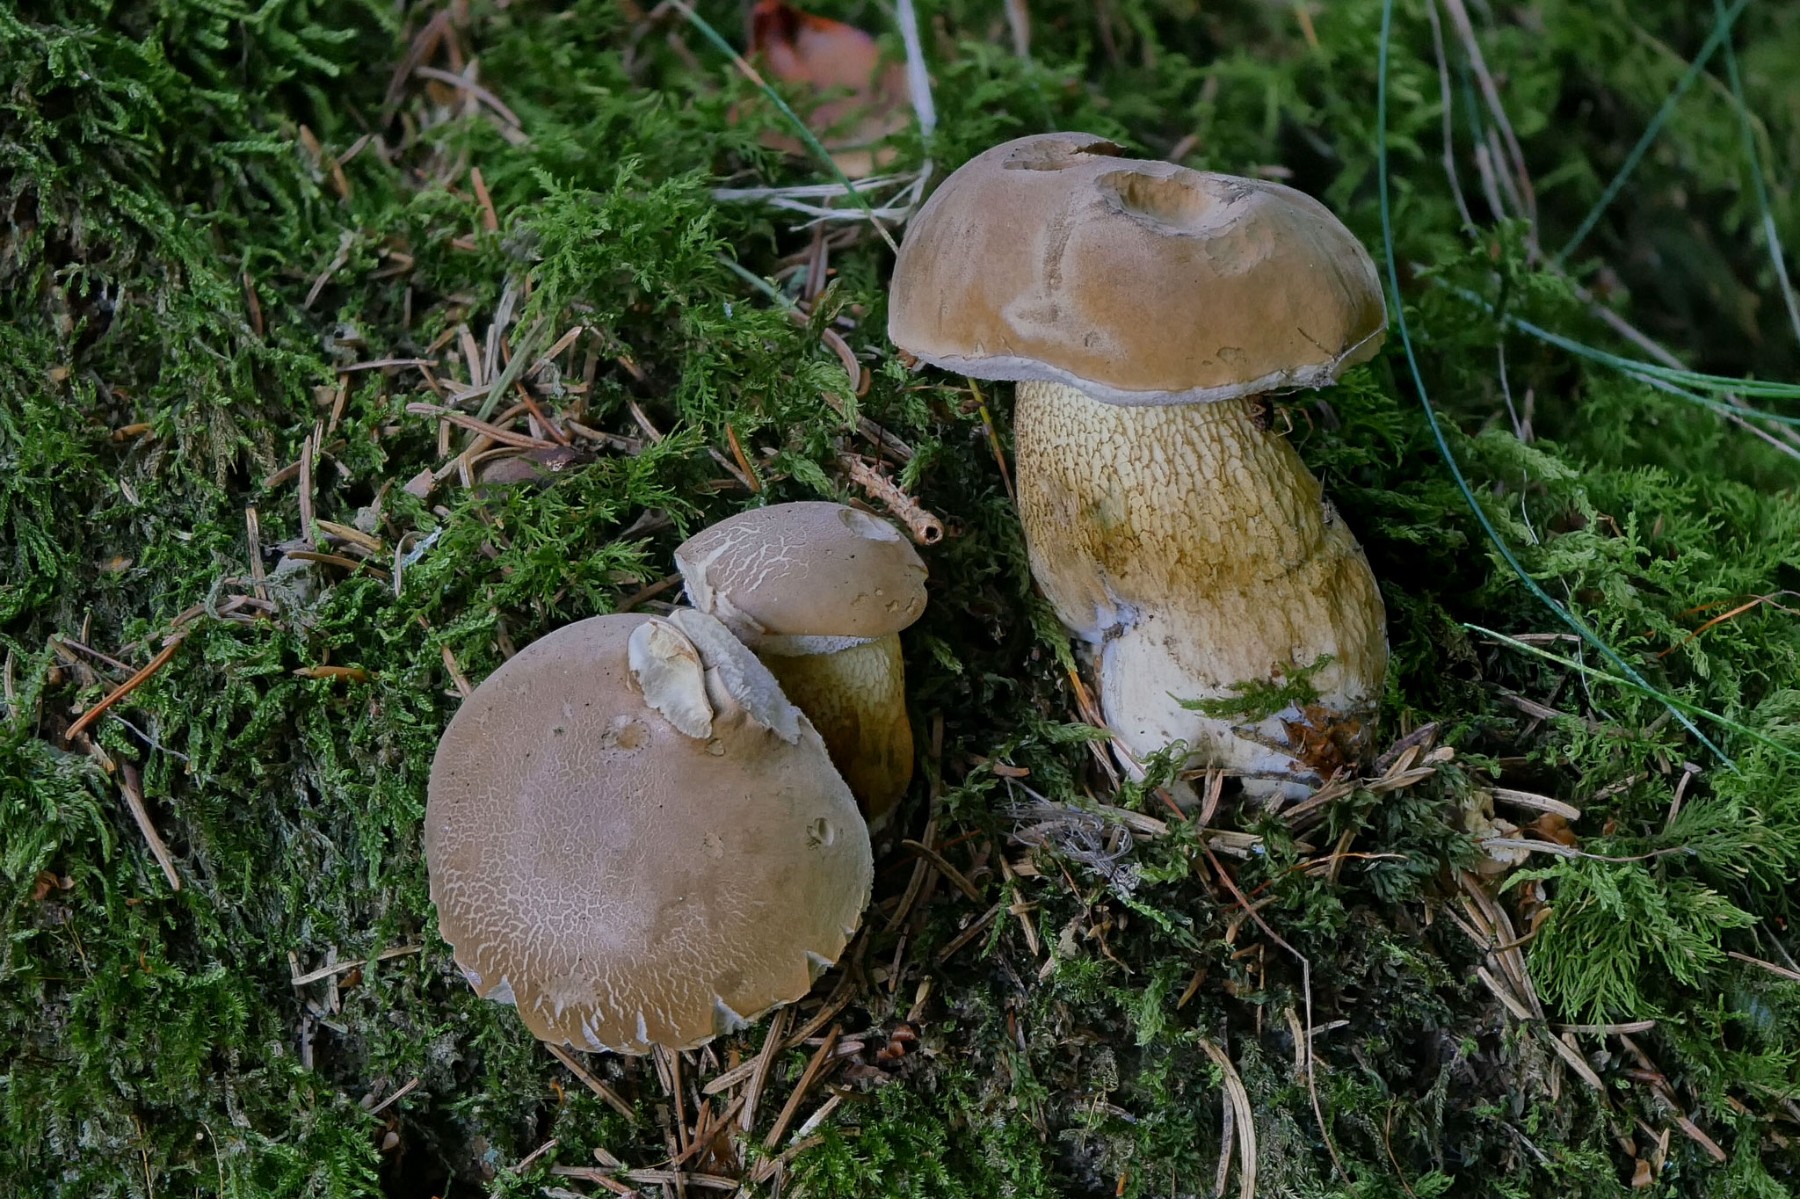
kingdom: Fungi
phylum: Basidiomycota
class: Agaricomycetes
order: Boletales
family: Boletaceae
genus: Tylopilus
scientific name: Tylopilus felleus
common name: galderørhat
